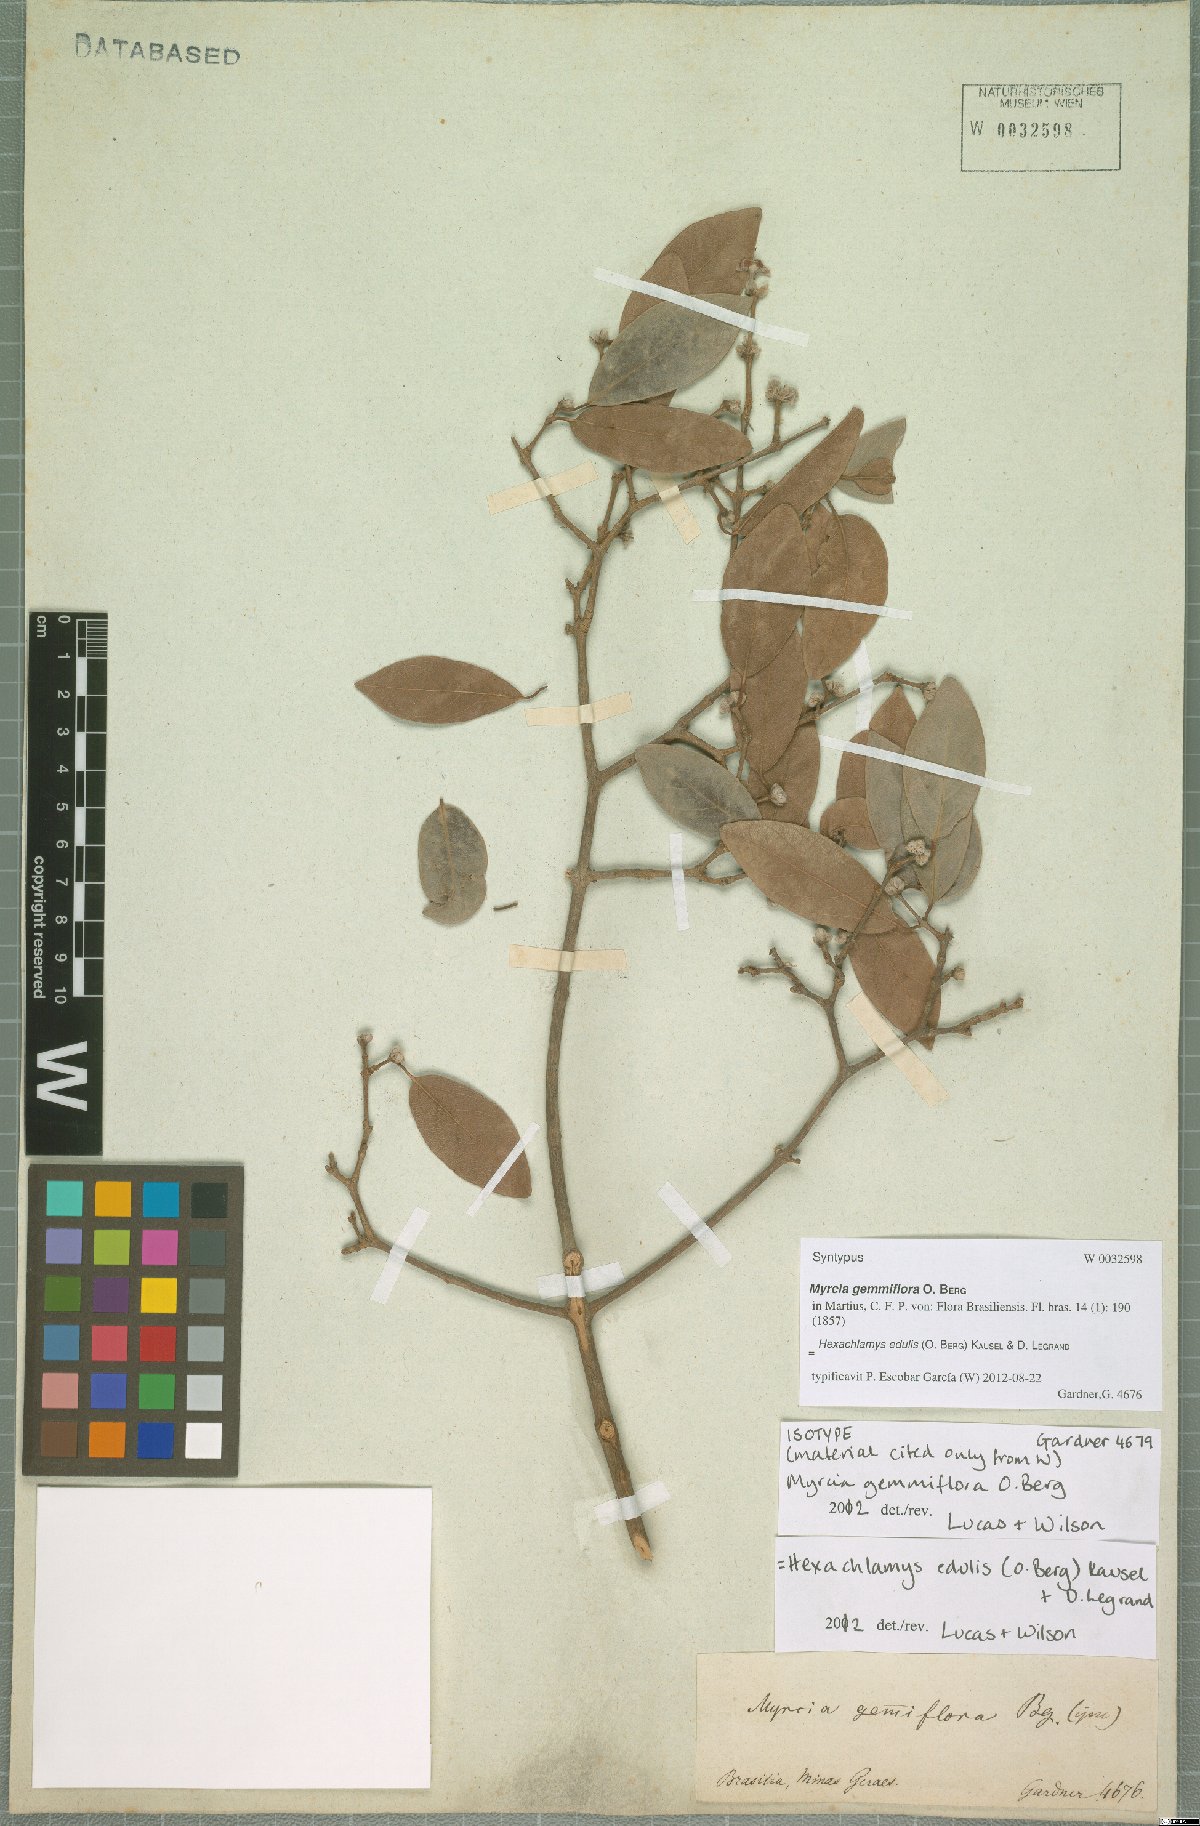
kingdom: Plantae
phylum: Tracheophyta
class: Magnoliopsida
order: Myrtales
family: Myrtaceae
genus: Eugenia
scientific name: Eugenia myrcianthes
